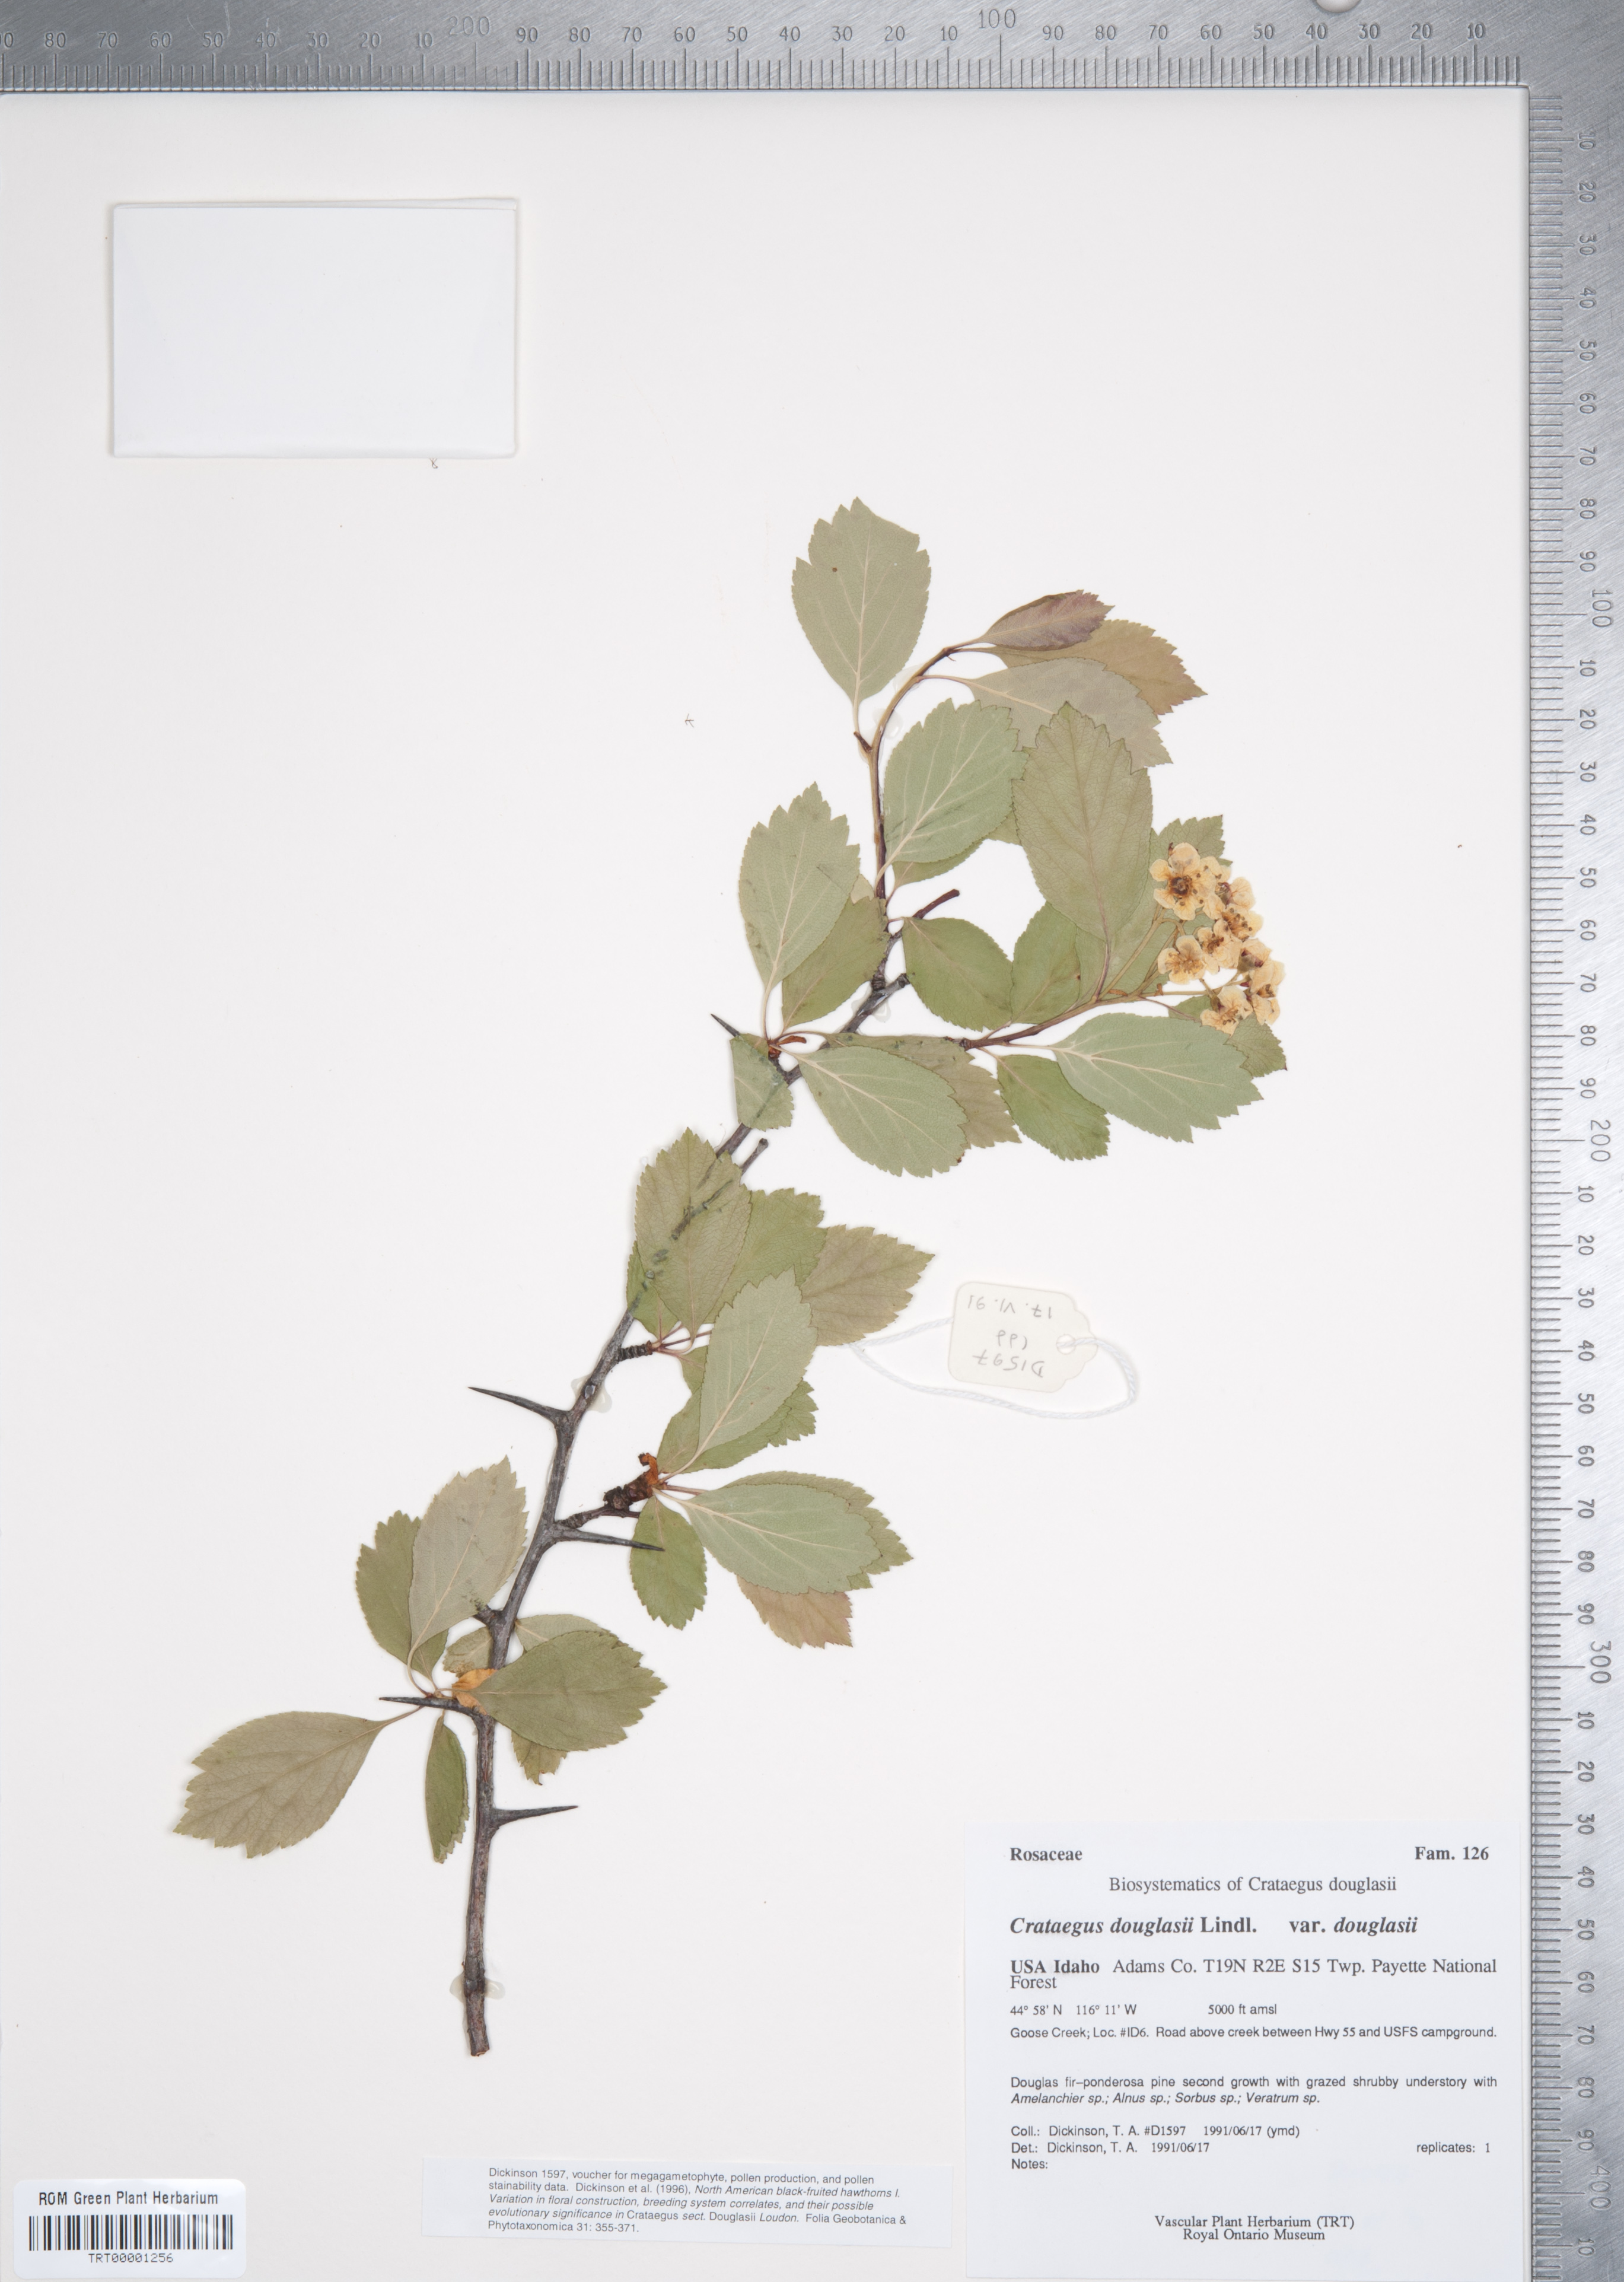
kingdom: Plantae
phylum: Tracheophyta
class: Magnoliopsida
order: Rosales
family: Rosaceae
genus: Crataegus
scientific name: Crataegus douglasii
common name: Black hawthorn
